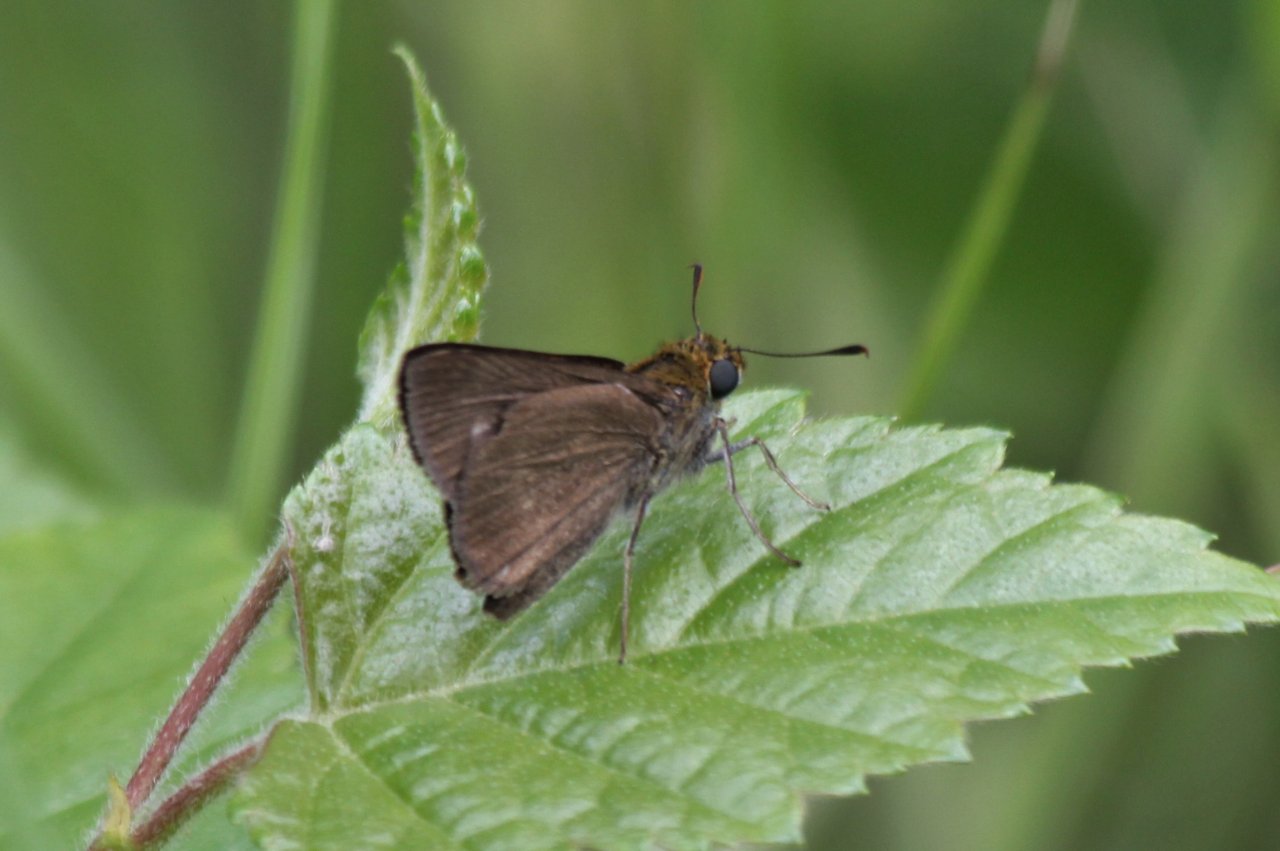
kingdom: Animalia
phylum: Arthropoda
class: Insecta
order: Lepidoptera
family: Hesperiidae
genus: Euphyes
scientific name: Euphyes vestris
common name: Dun Skipper
